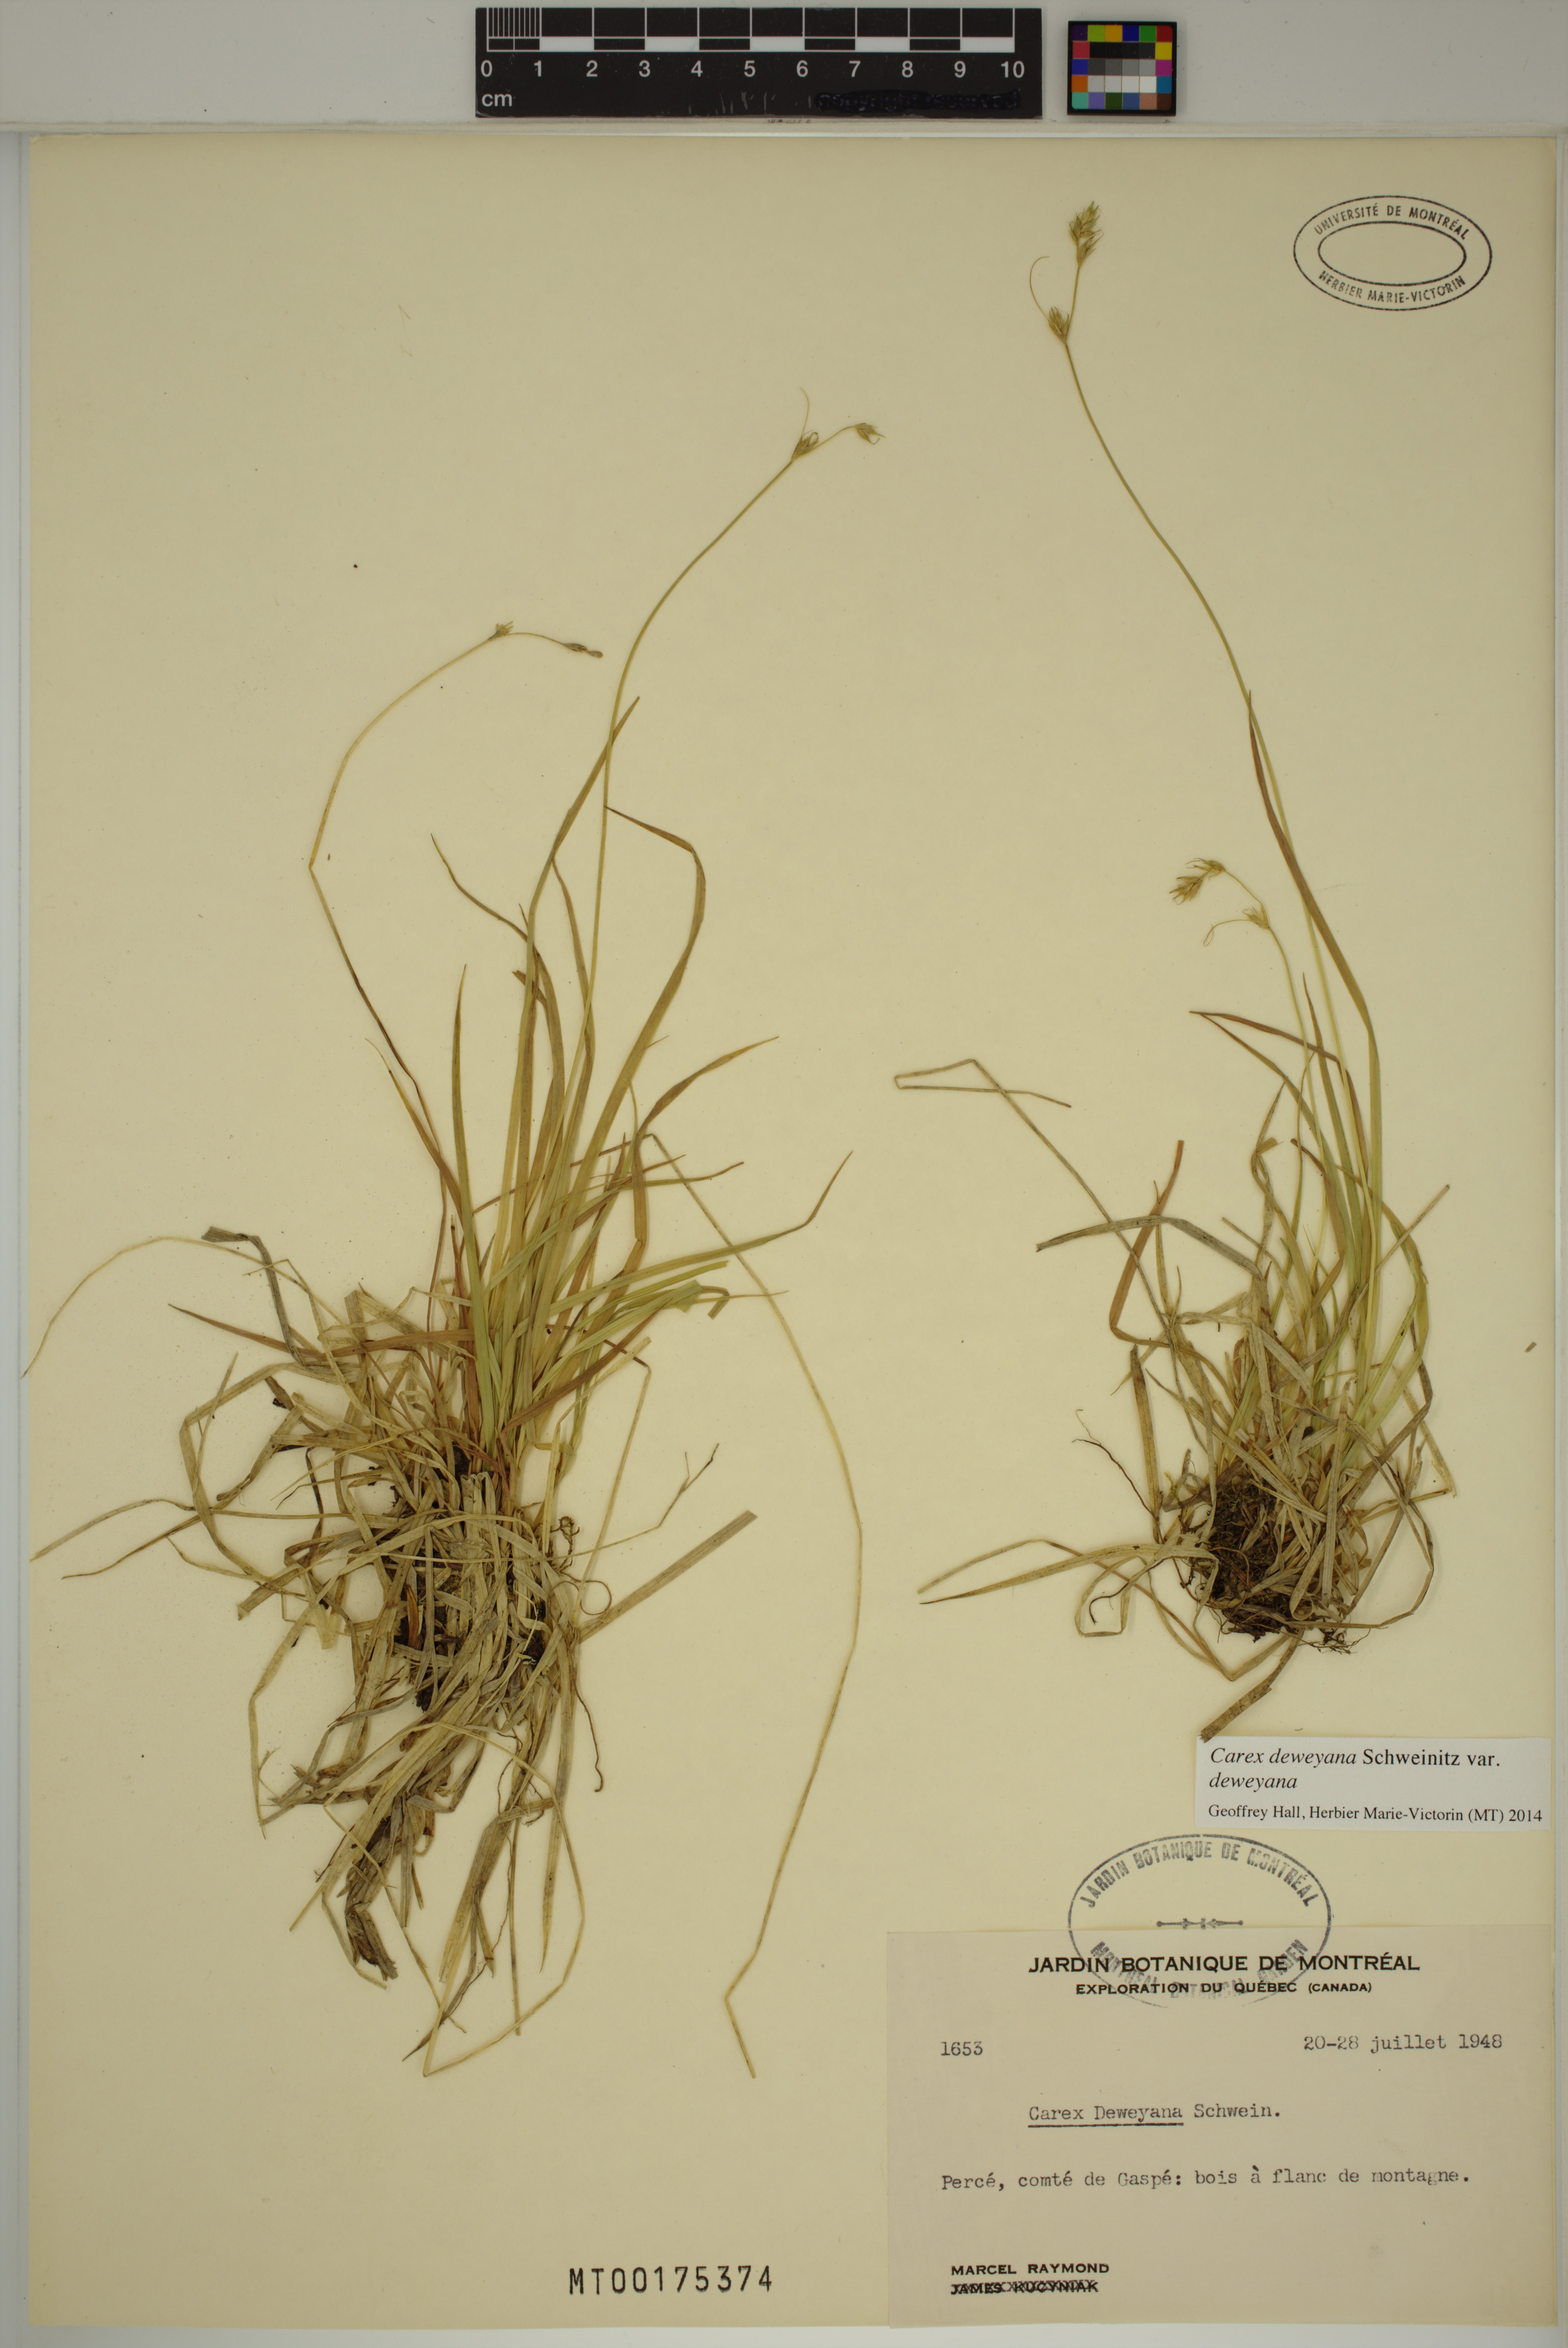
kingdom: Plantae
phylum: Tracheophyta
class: Liliopsida
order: Poales
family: Cyperaceae
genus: Carex
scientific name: Carex deweyana
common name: Dewey's sedge
